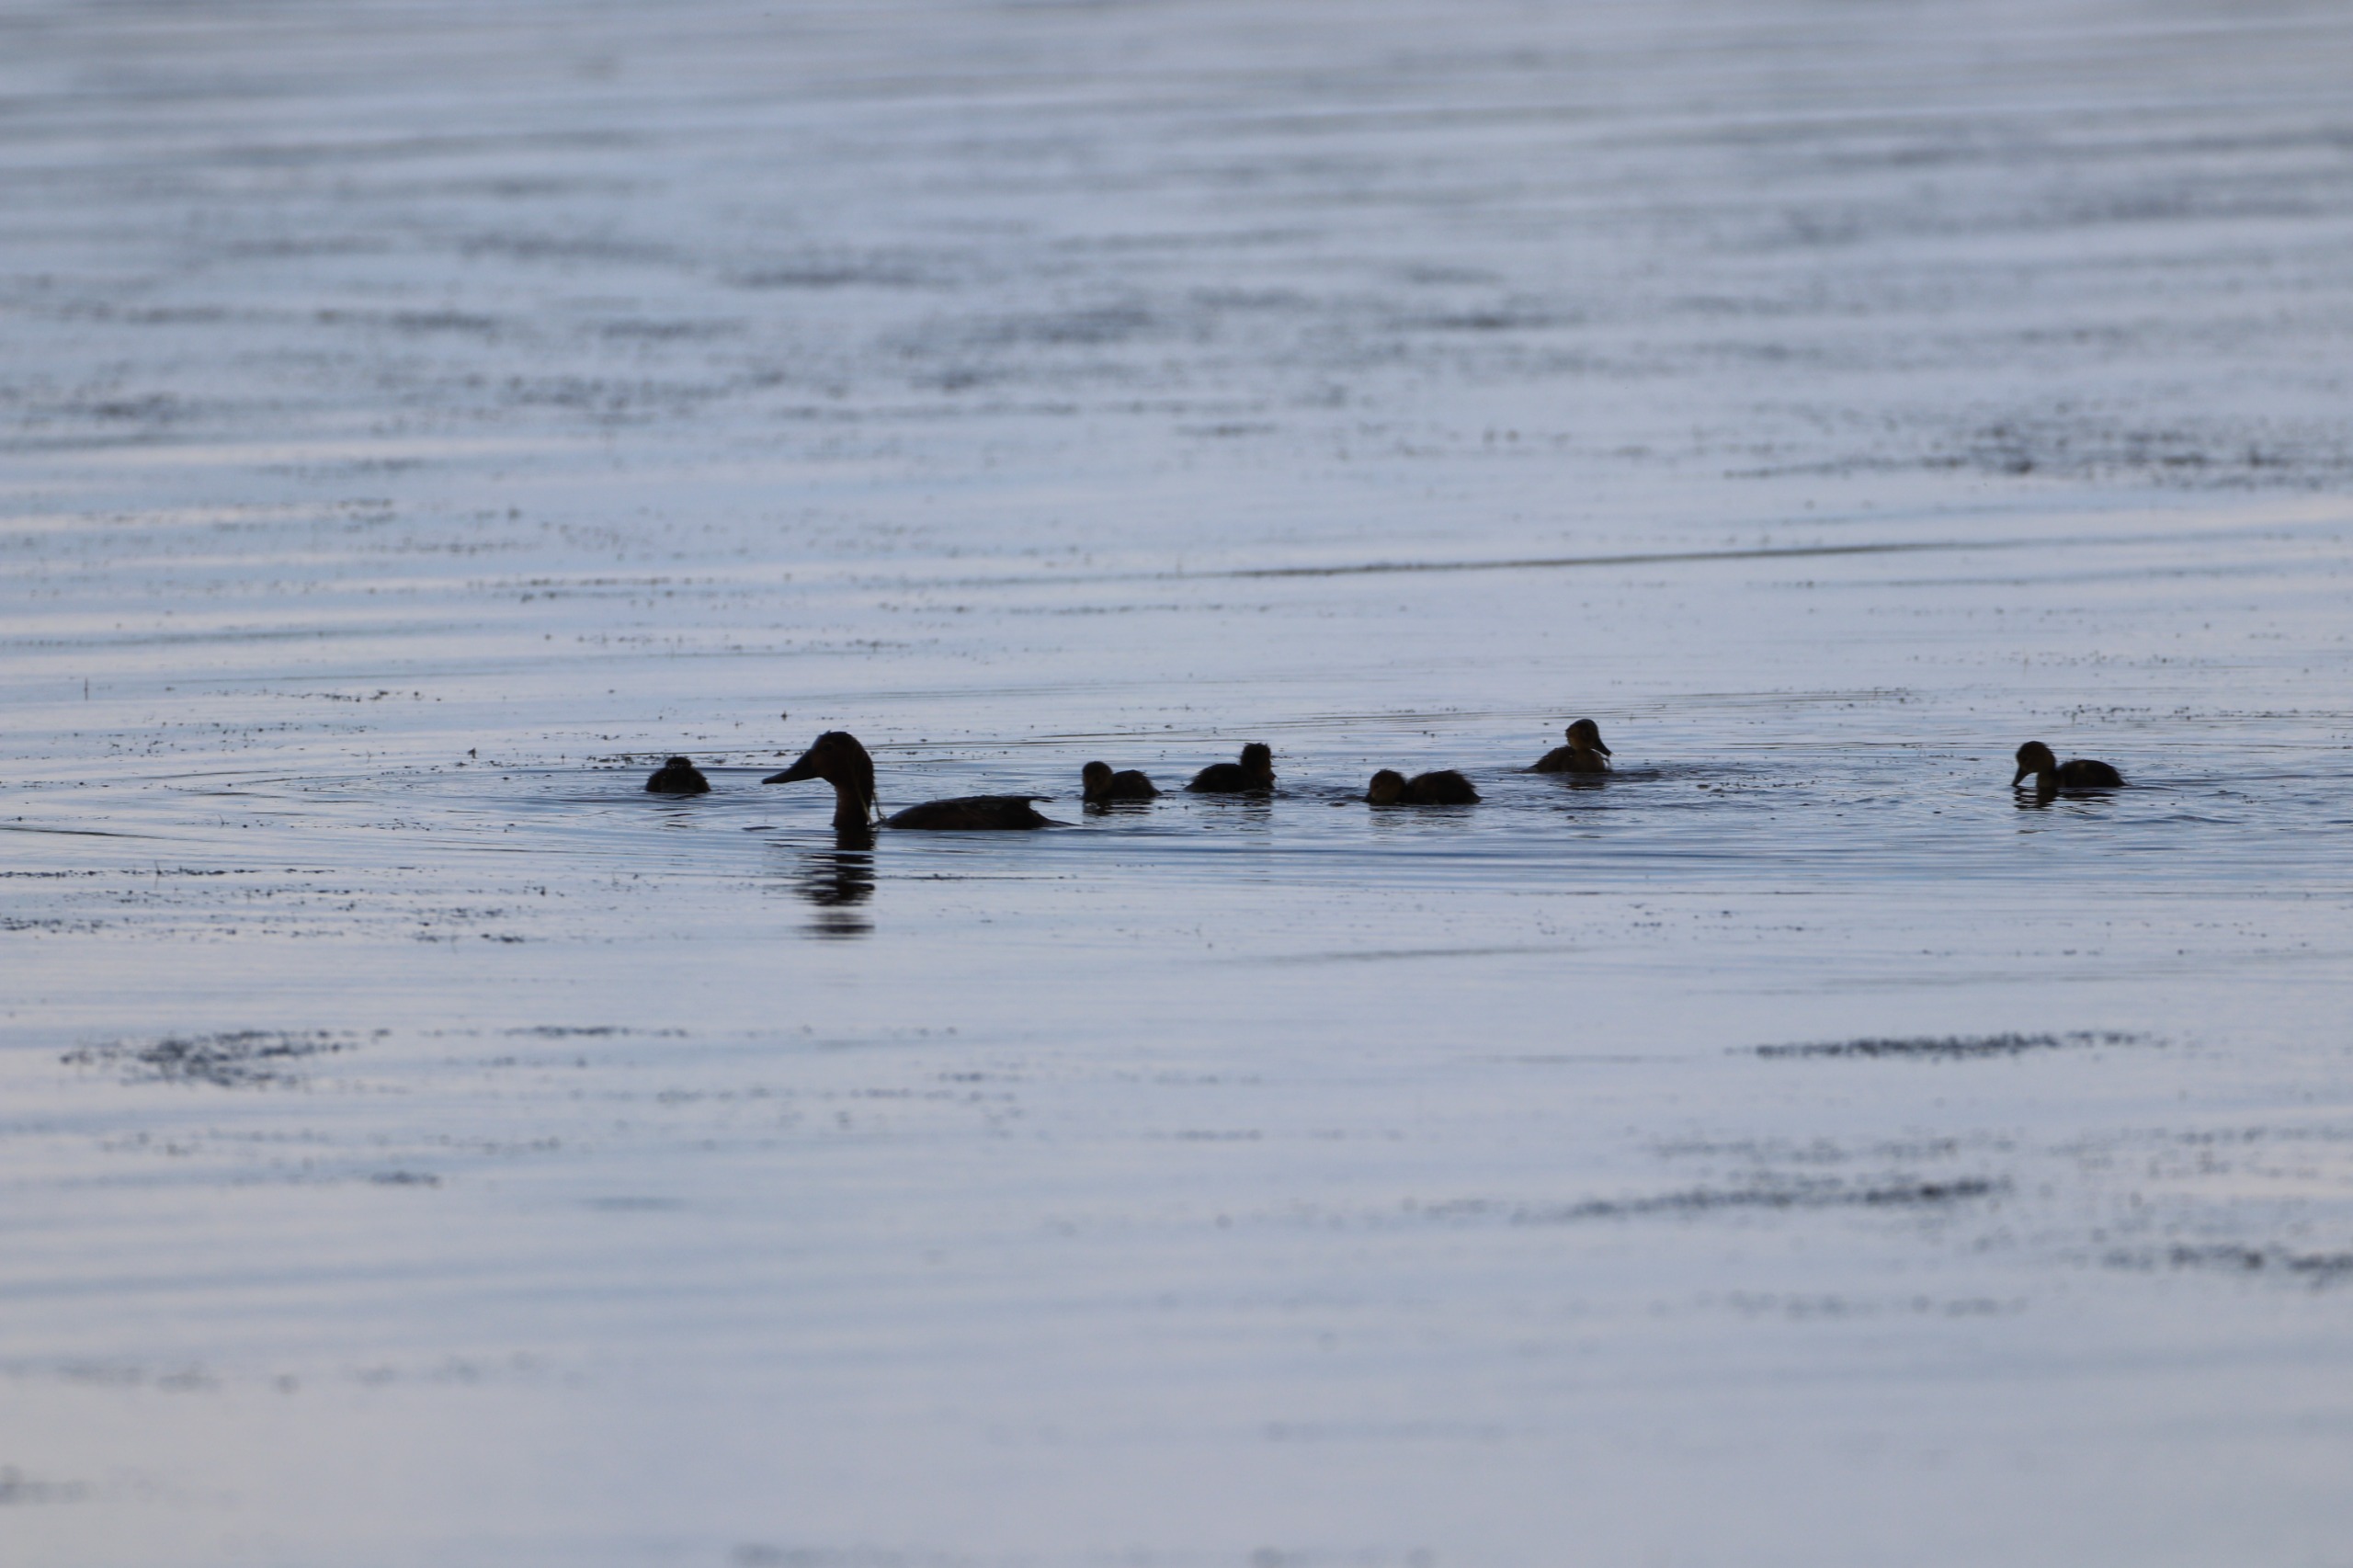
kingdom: Animalia
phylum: Chordata
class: Aves
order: Anseriformes
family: Anatidae
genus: Aythya
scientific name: Aythya ferina
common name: Taffeland
